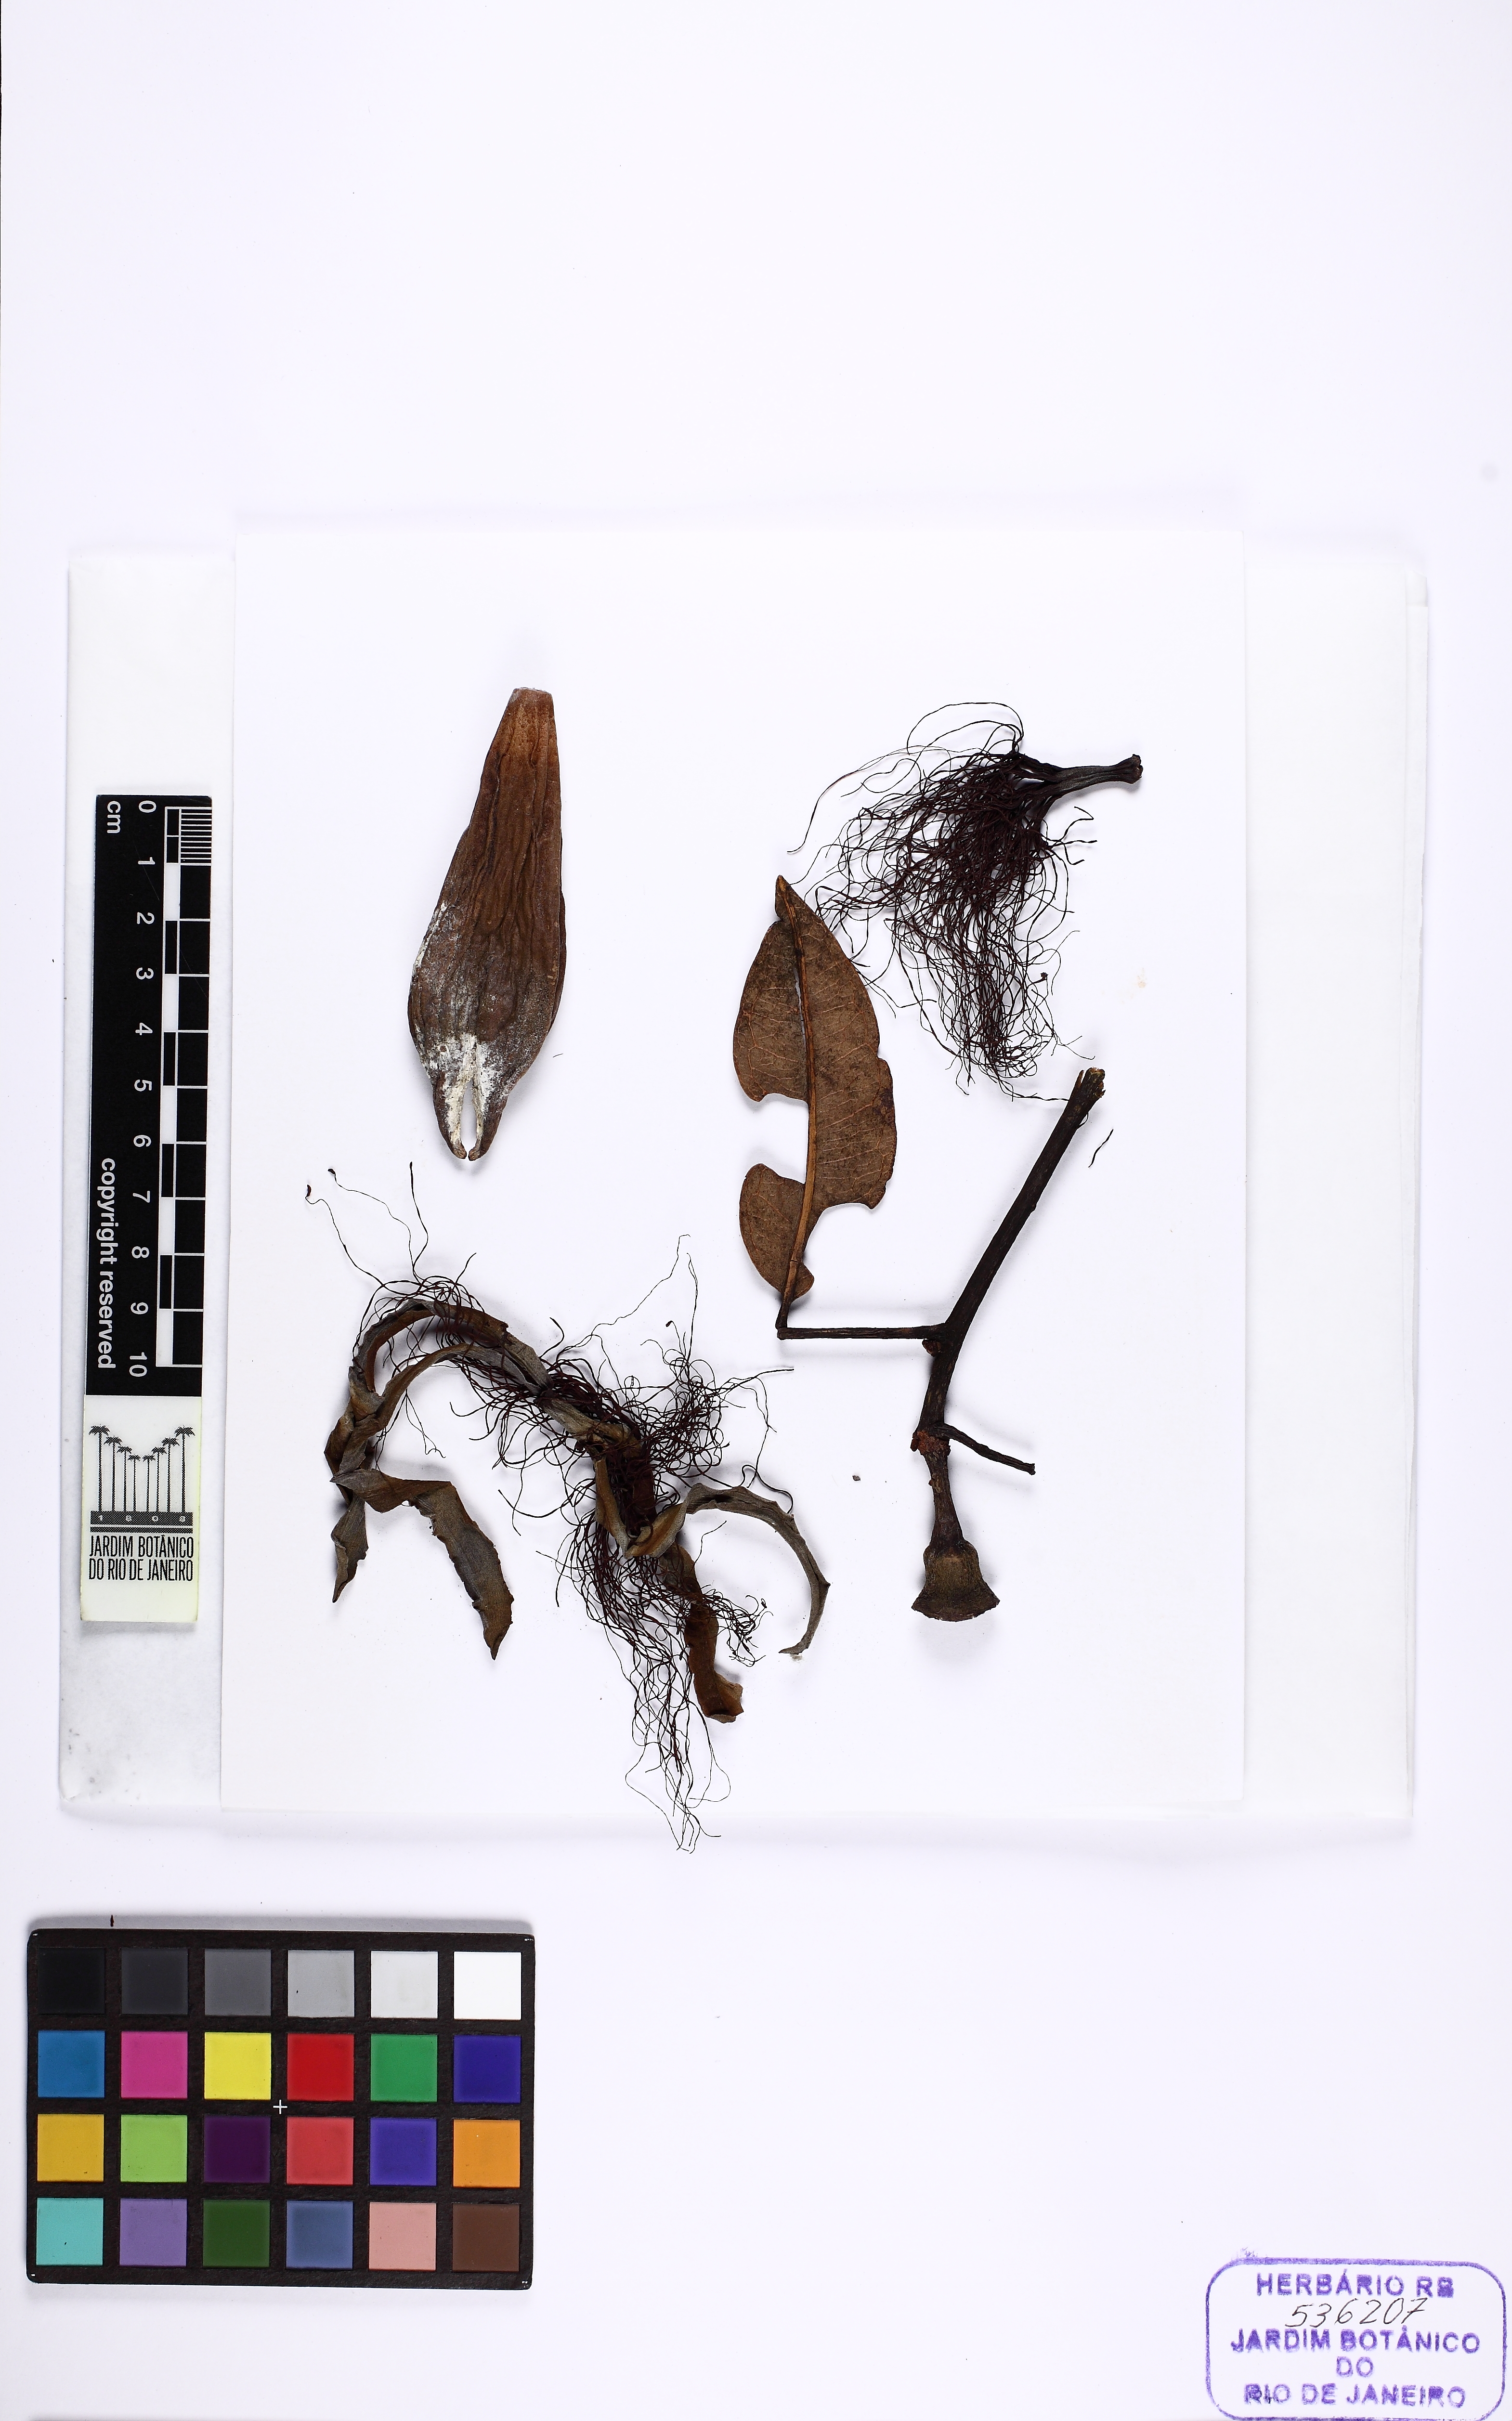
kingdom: Plantae
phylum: Tracheophyta
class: Magnoliopsida
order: Malvales
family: Malvaceae
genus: Pachira
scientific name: Pachira amazonica
